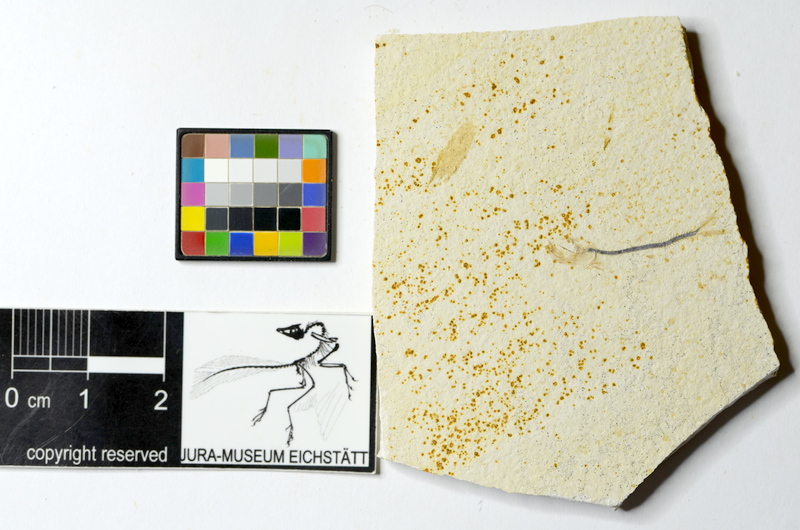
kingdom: Animalia
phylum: Chordata
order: Salmoniformes
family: Orthogonikleithridae
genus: Orthogonikleithrus
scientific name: Orthogonikleithrus hoelli
